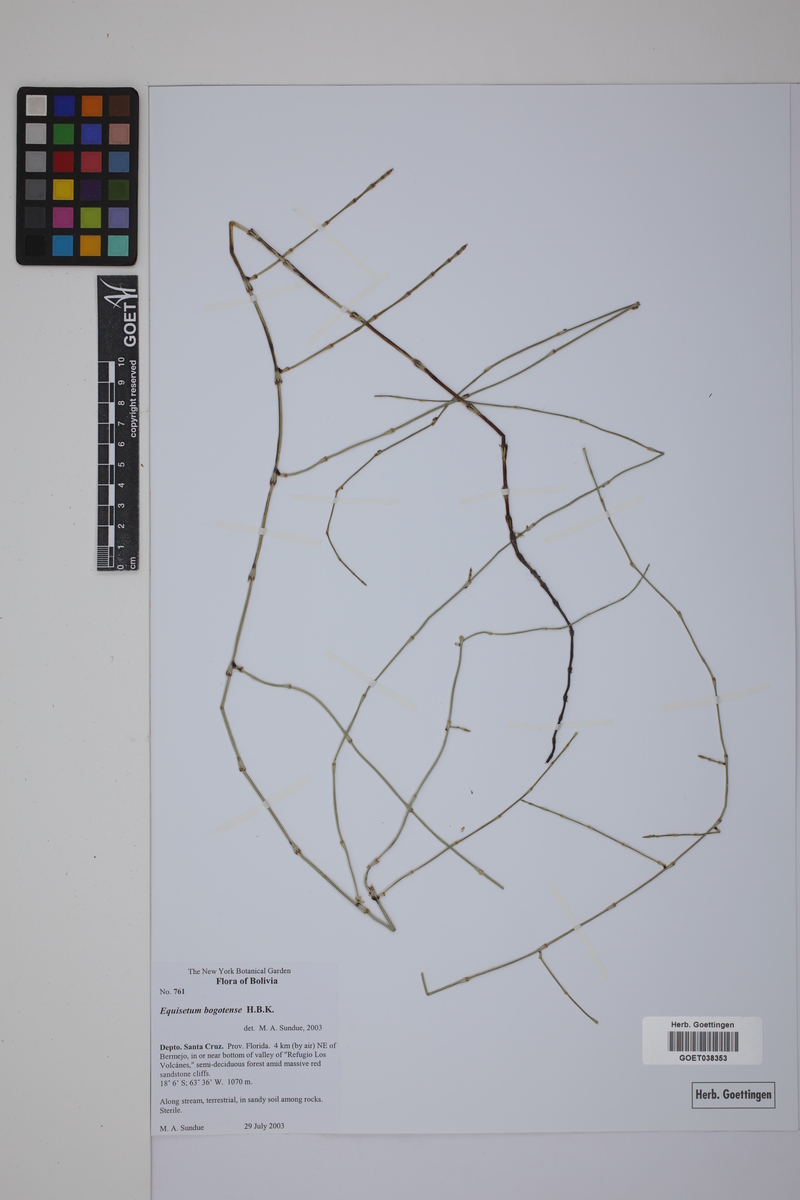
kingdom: Plantae
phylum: Tracheophyta
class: Polypodiopsida
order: Equisetales
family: Equisetaceae
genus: Equisetum
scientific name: Equisetum bogotense
